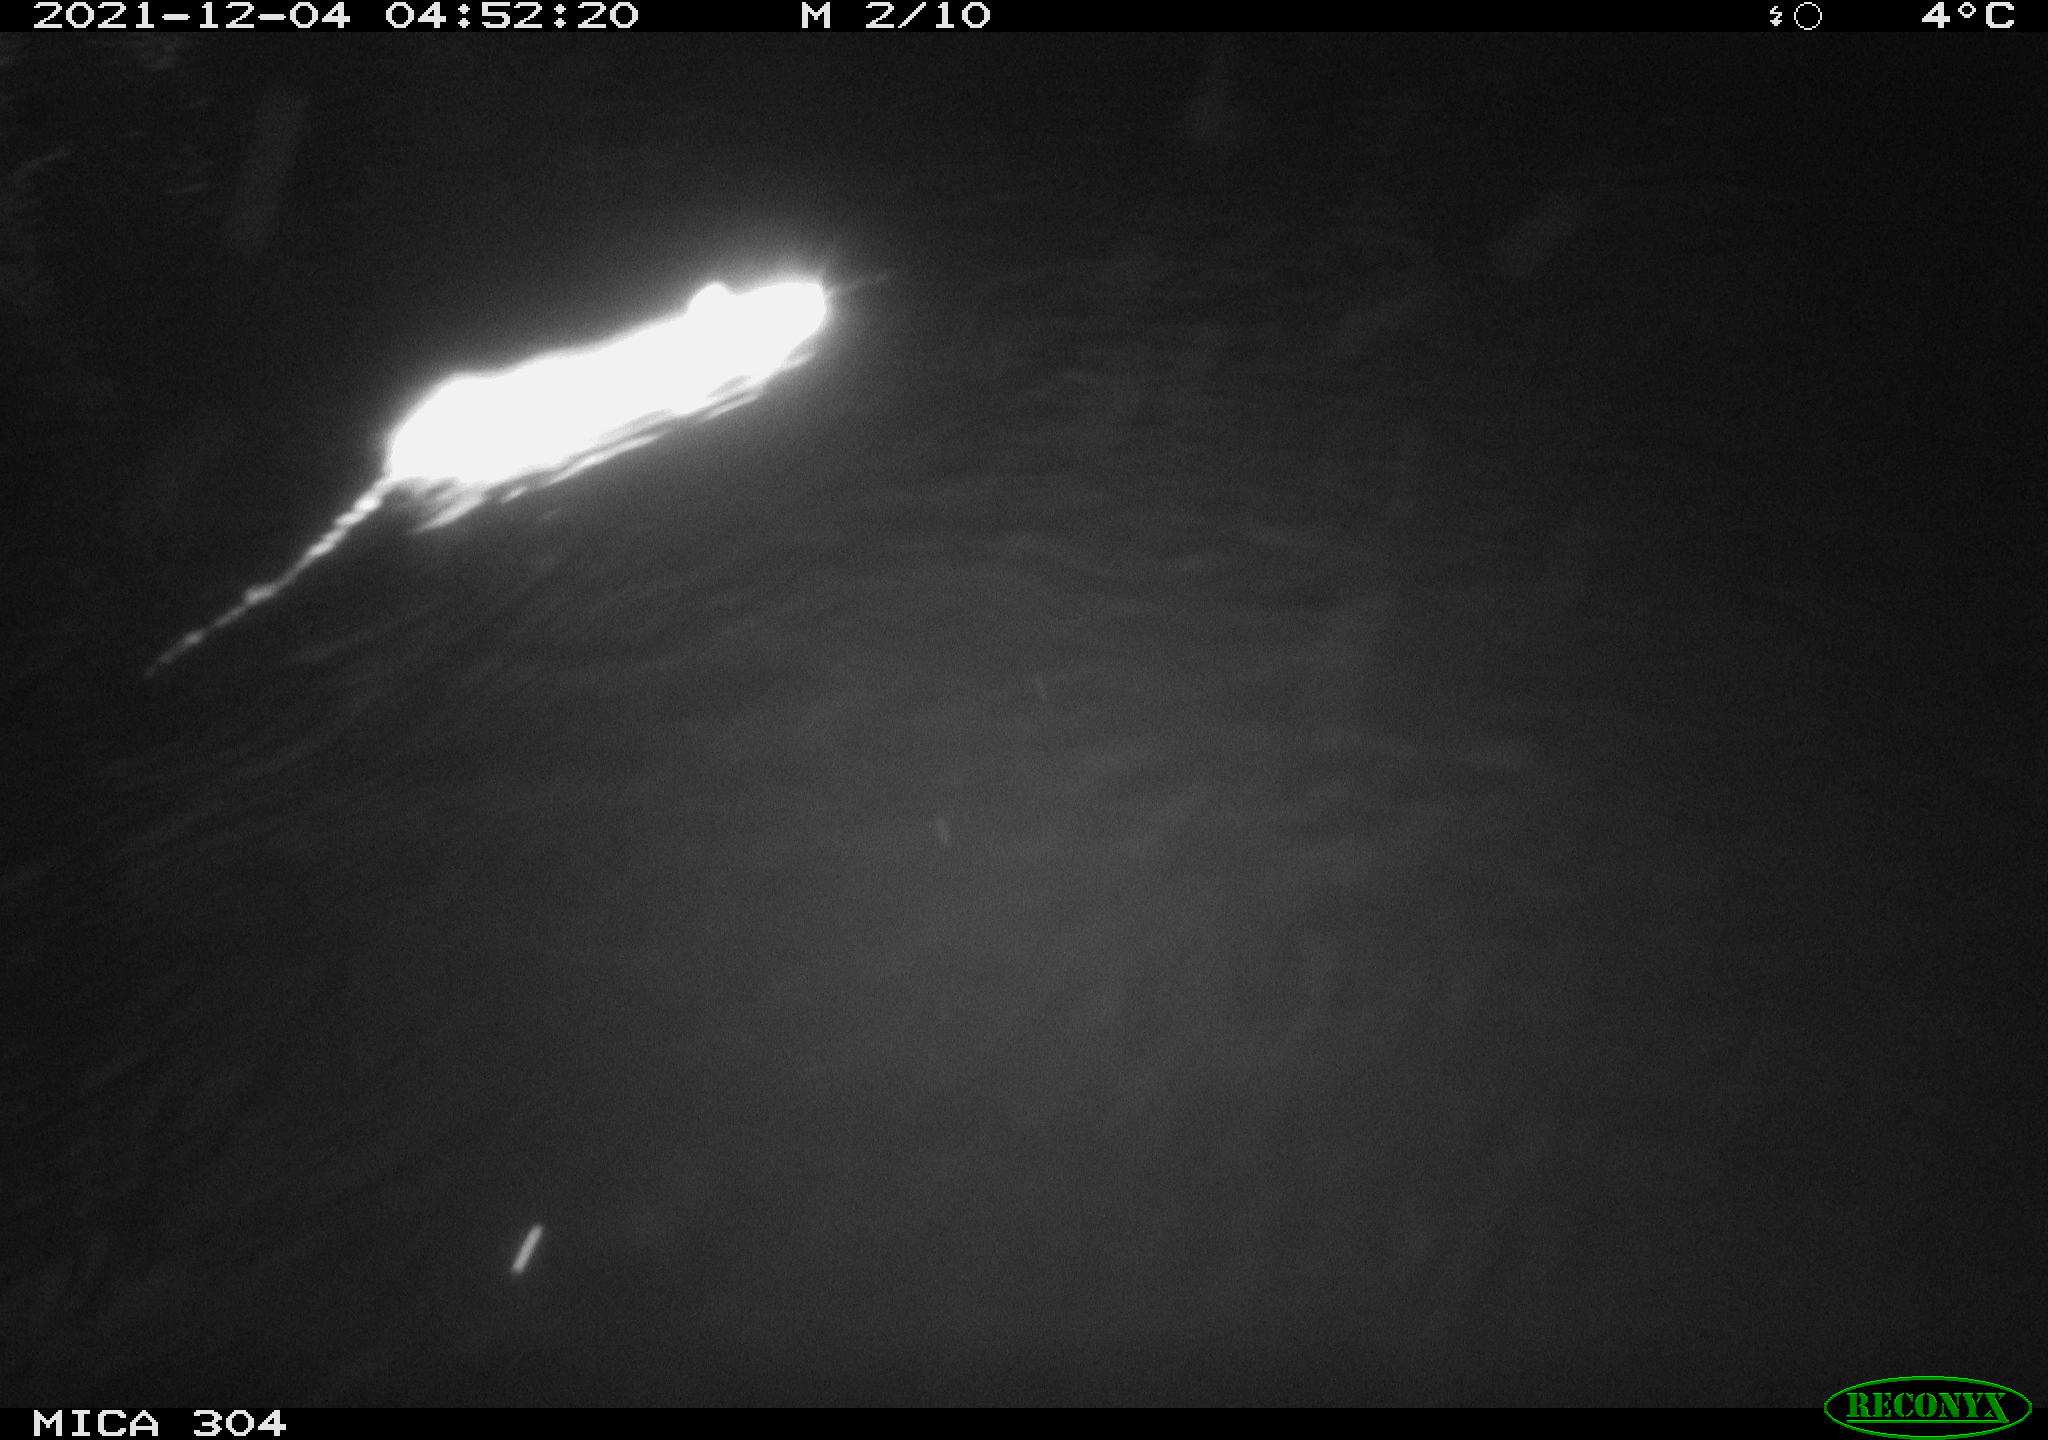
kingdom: Animalia
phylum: Chordata
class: Mammalia
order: Rodentia
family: Muridae
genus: Rattus
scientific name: Rattus norvegicus
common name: Brown rat
